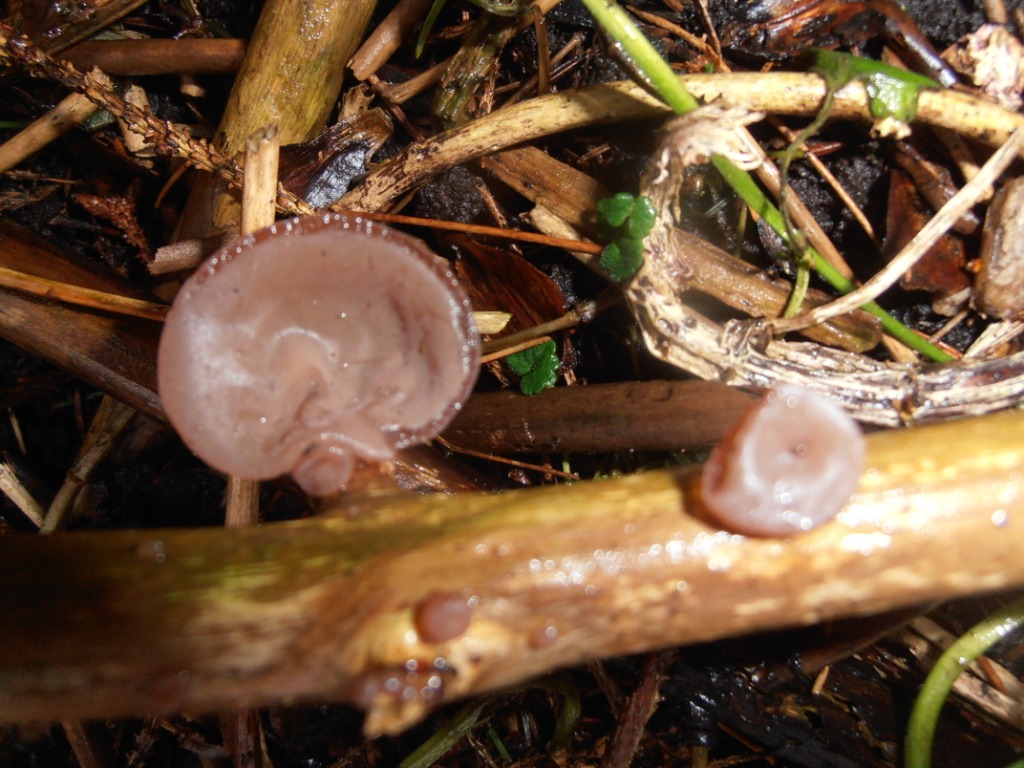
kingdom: Fungi
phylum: Basidiomycota
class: Agaricomycetes
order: Auriculariales
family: Auriculariaceae
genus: Auricularia
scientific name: Auricularia auricula-judae
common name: almindelig judasøre
